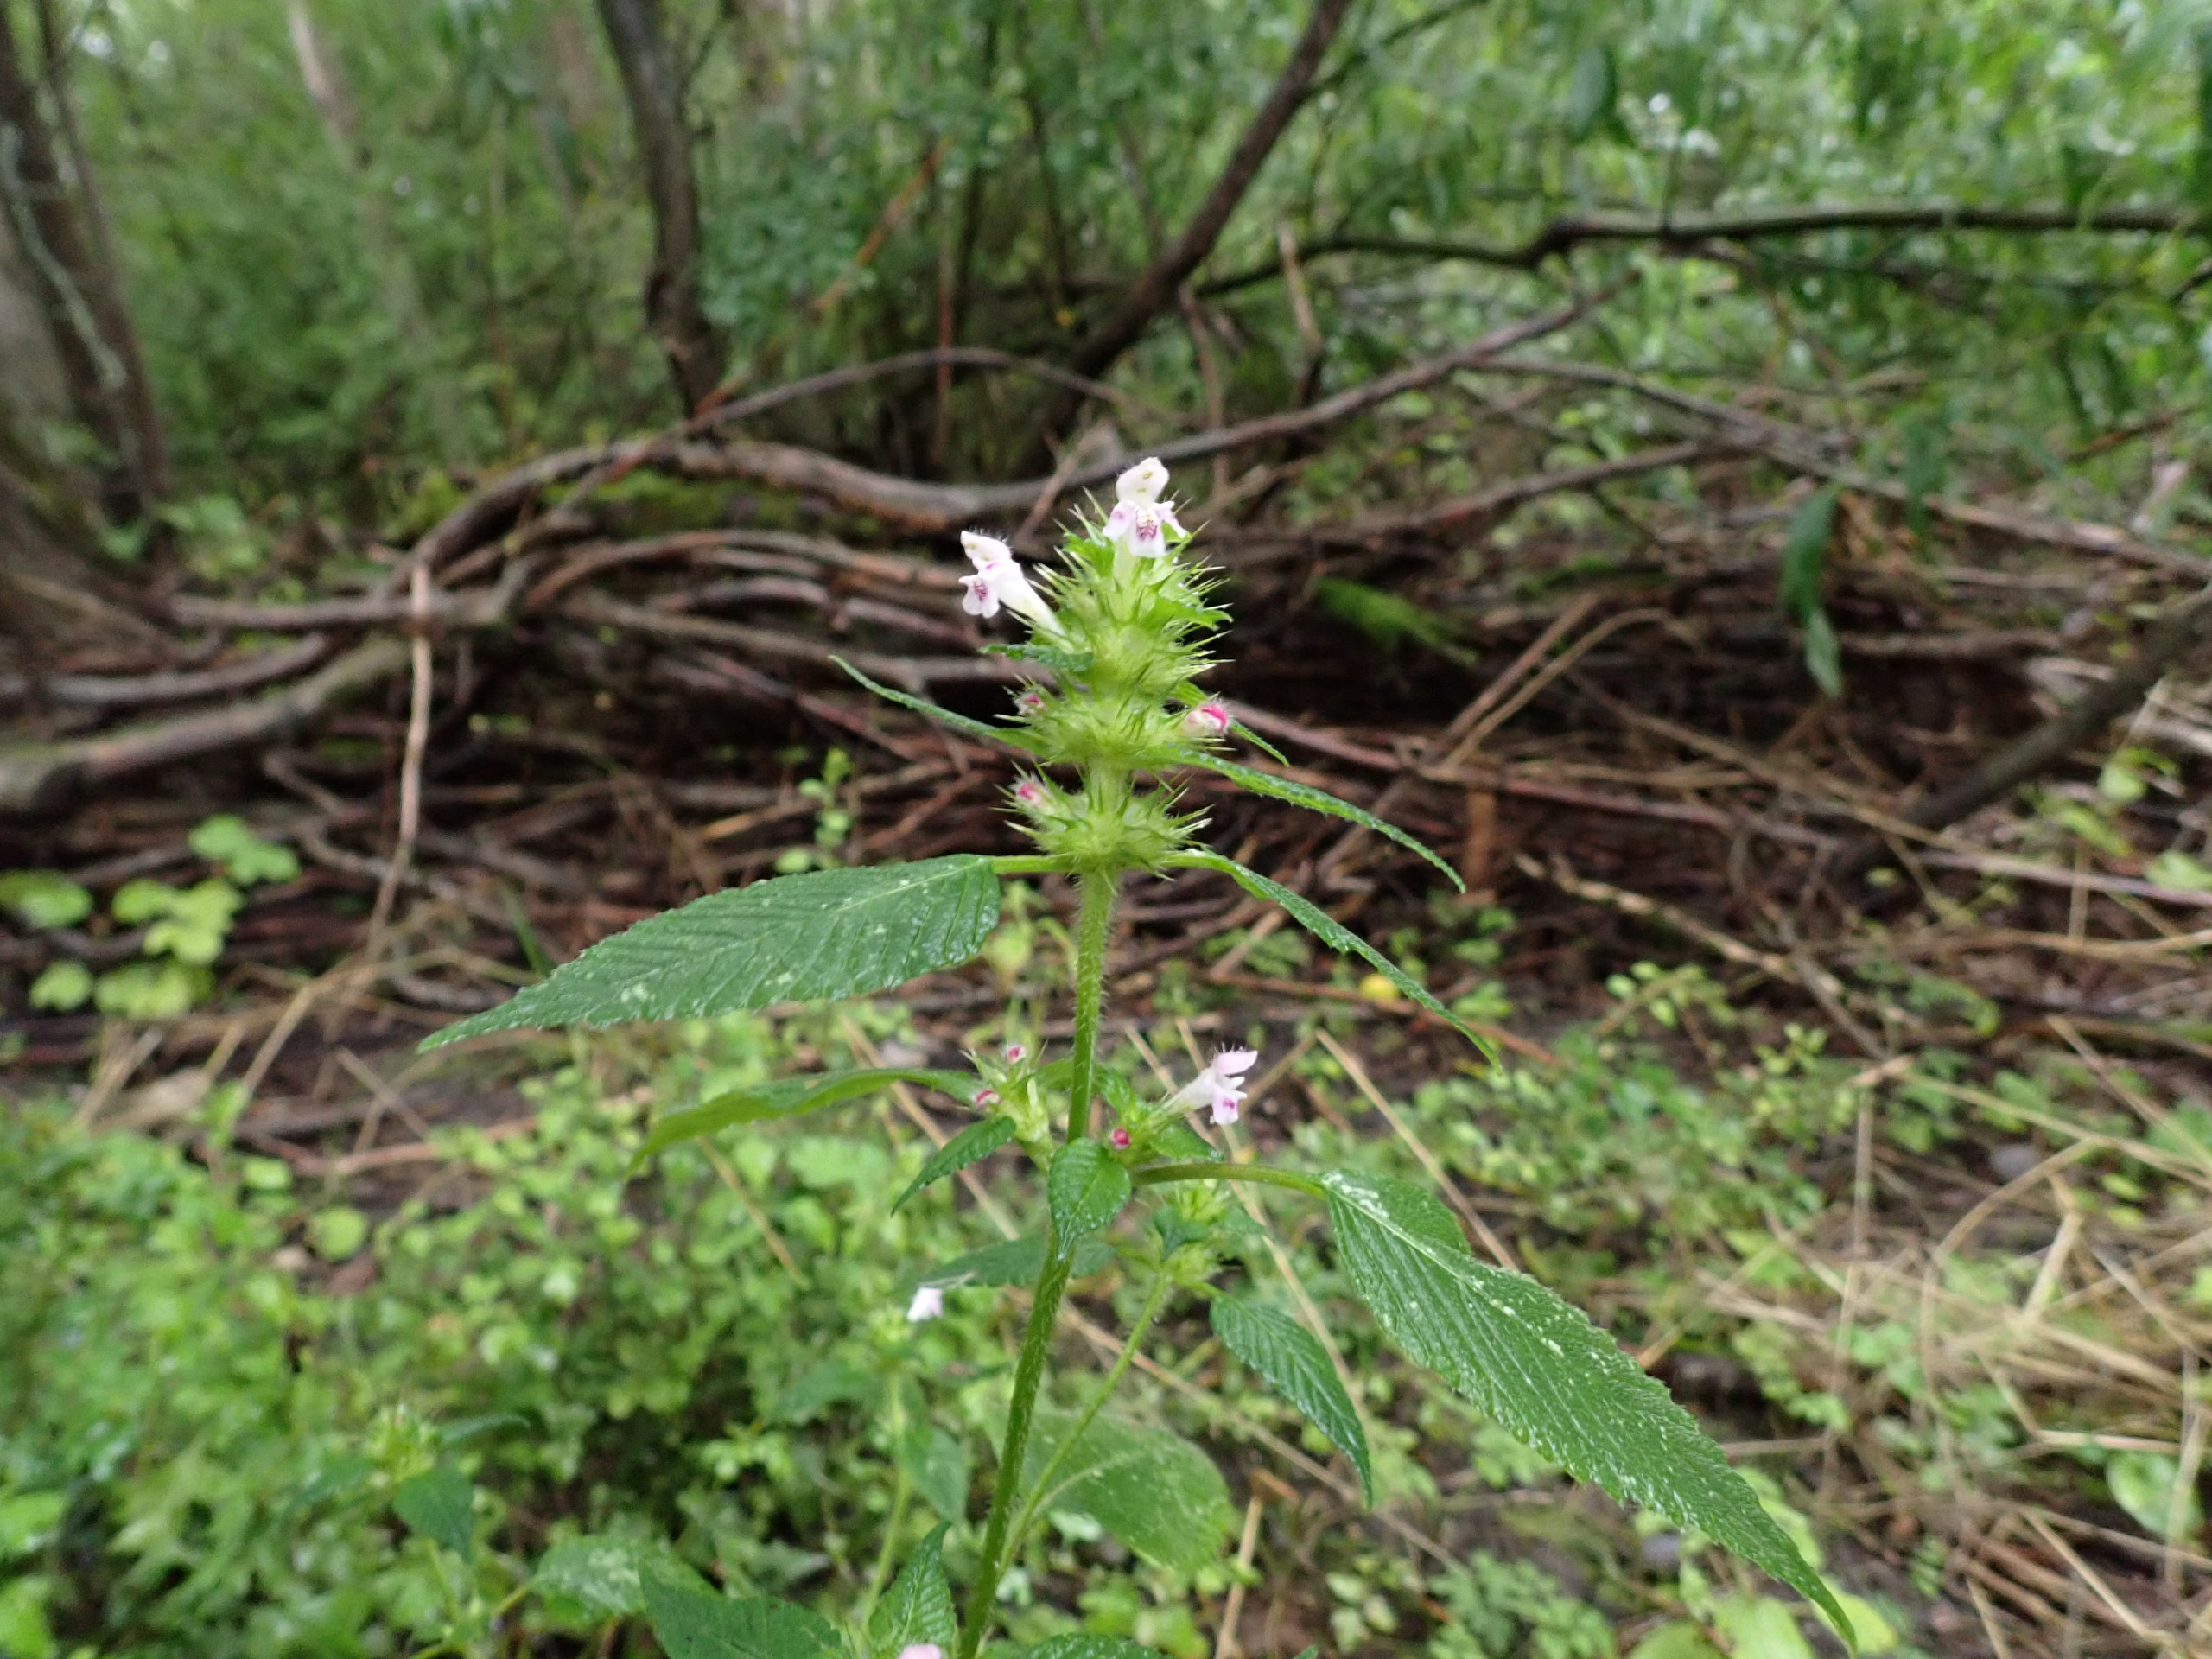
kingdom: Plantae
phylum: Tracheophyta
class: Magnoliopsida
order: Lamiales
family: Lamiaceae
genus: Galeopsis
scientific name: Galeopsis tetrahit
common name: Almindelig hanekro
